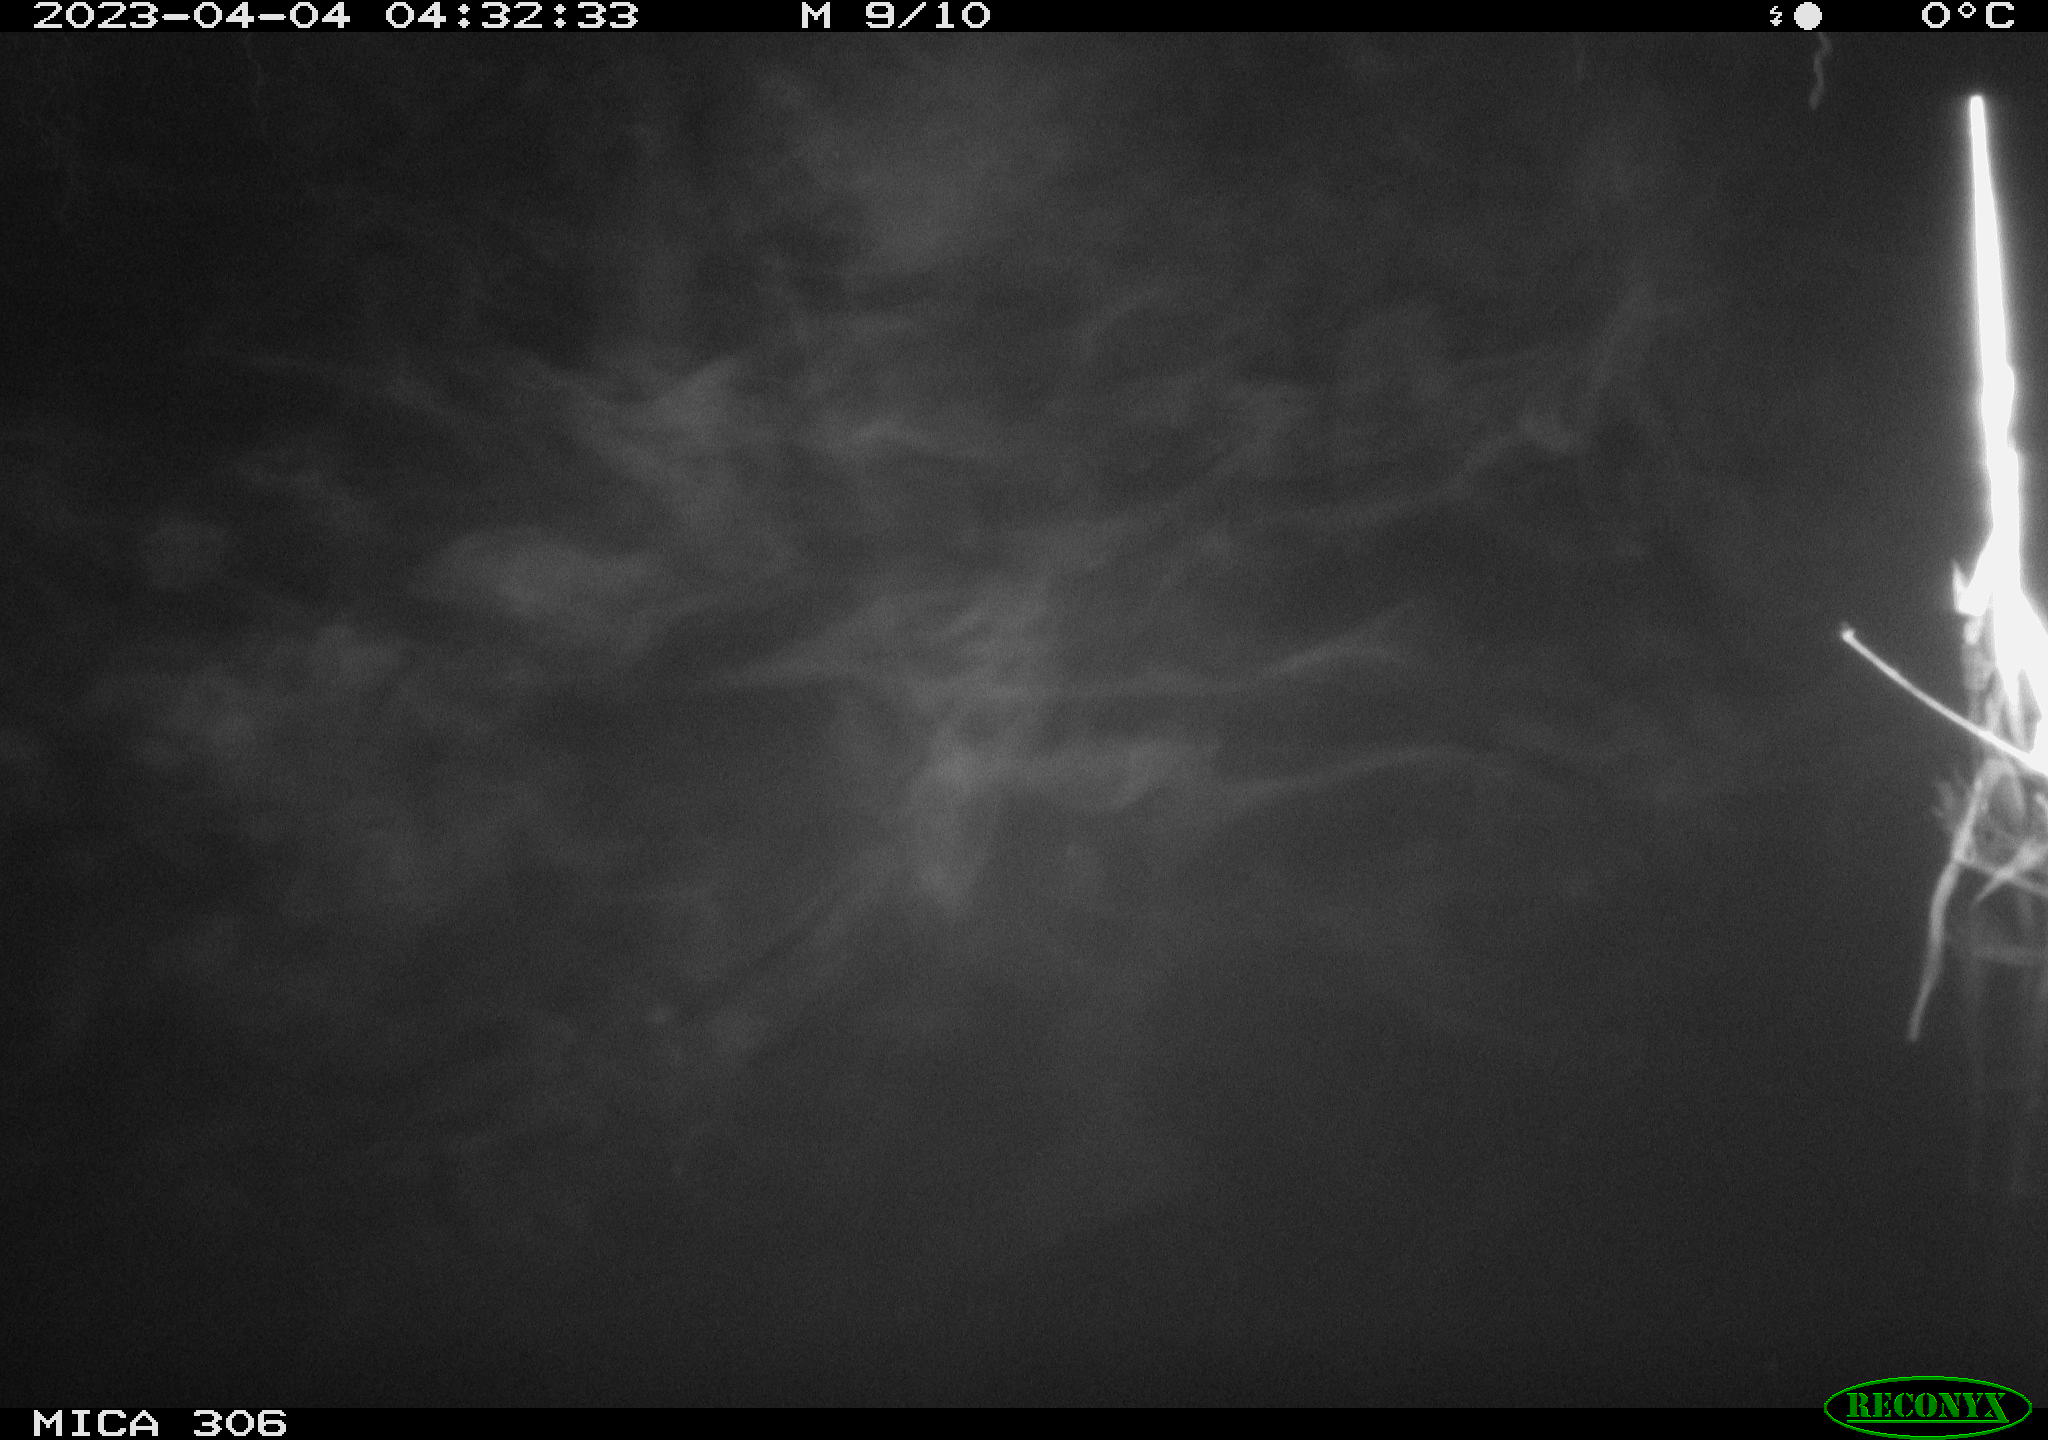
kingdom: Animalia
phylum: Chordata
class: Mammalia
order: Rodentia
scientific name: Rodentia
